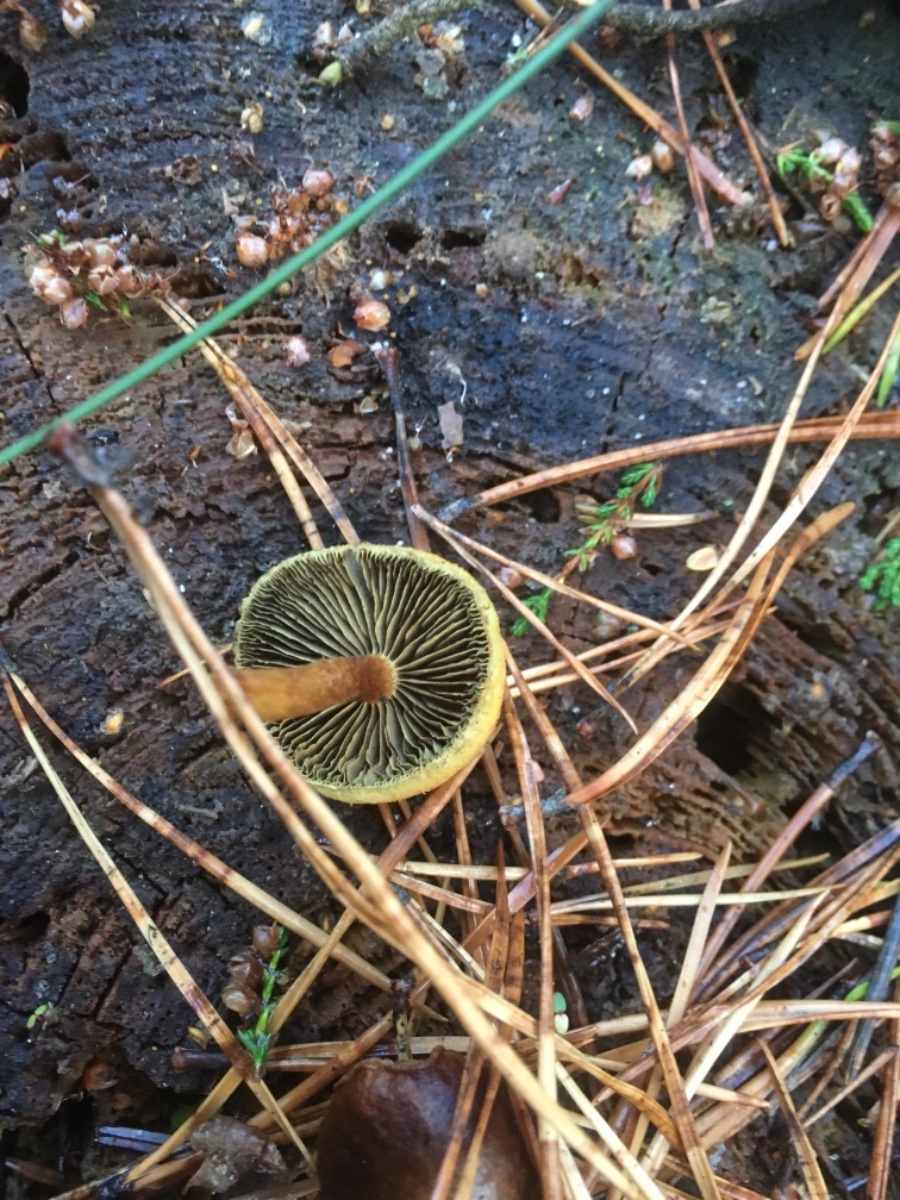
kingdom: Fungi
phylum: Basidiomycota
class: Agaricomycetes
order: Agaricales
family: Strophariaceae
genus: Hypholoma
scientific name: Hypholoma fasciculare
